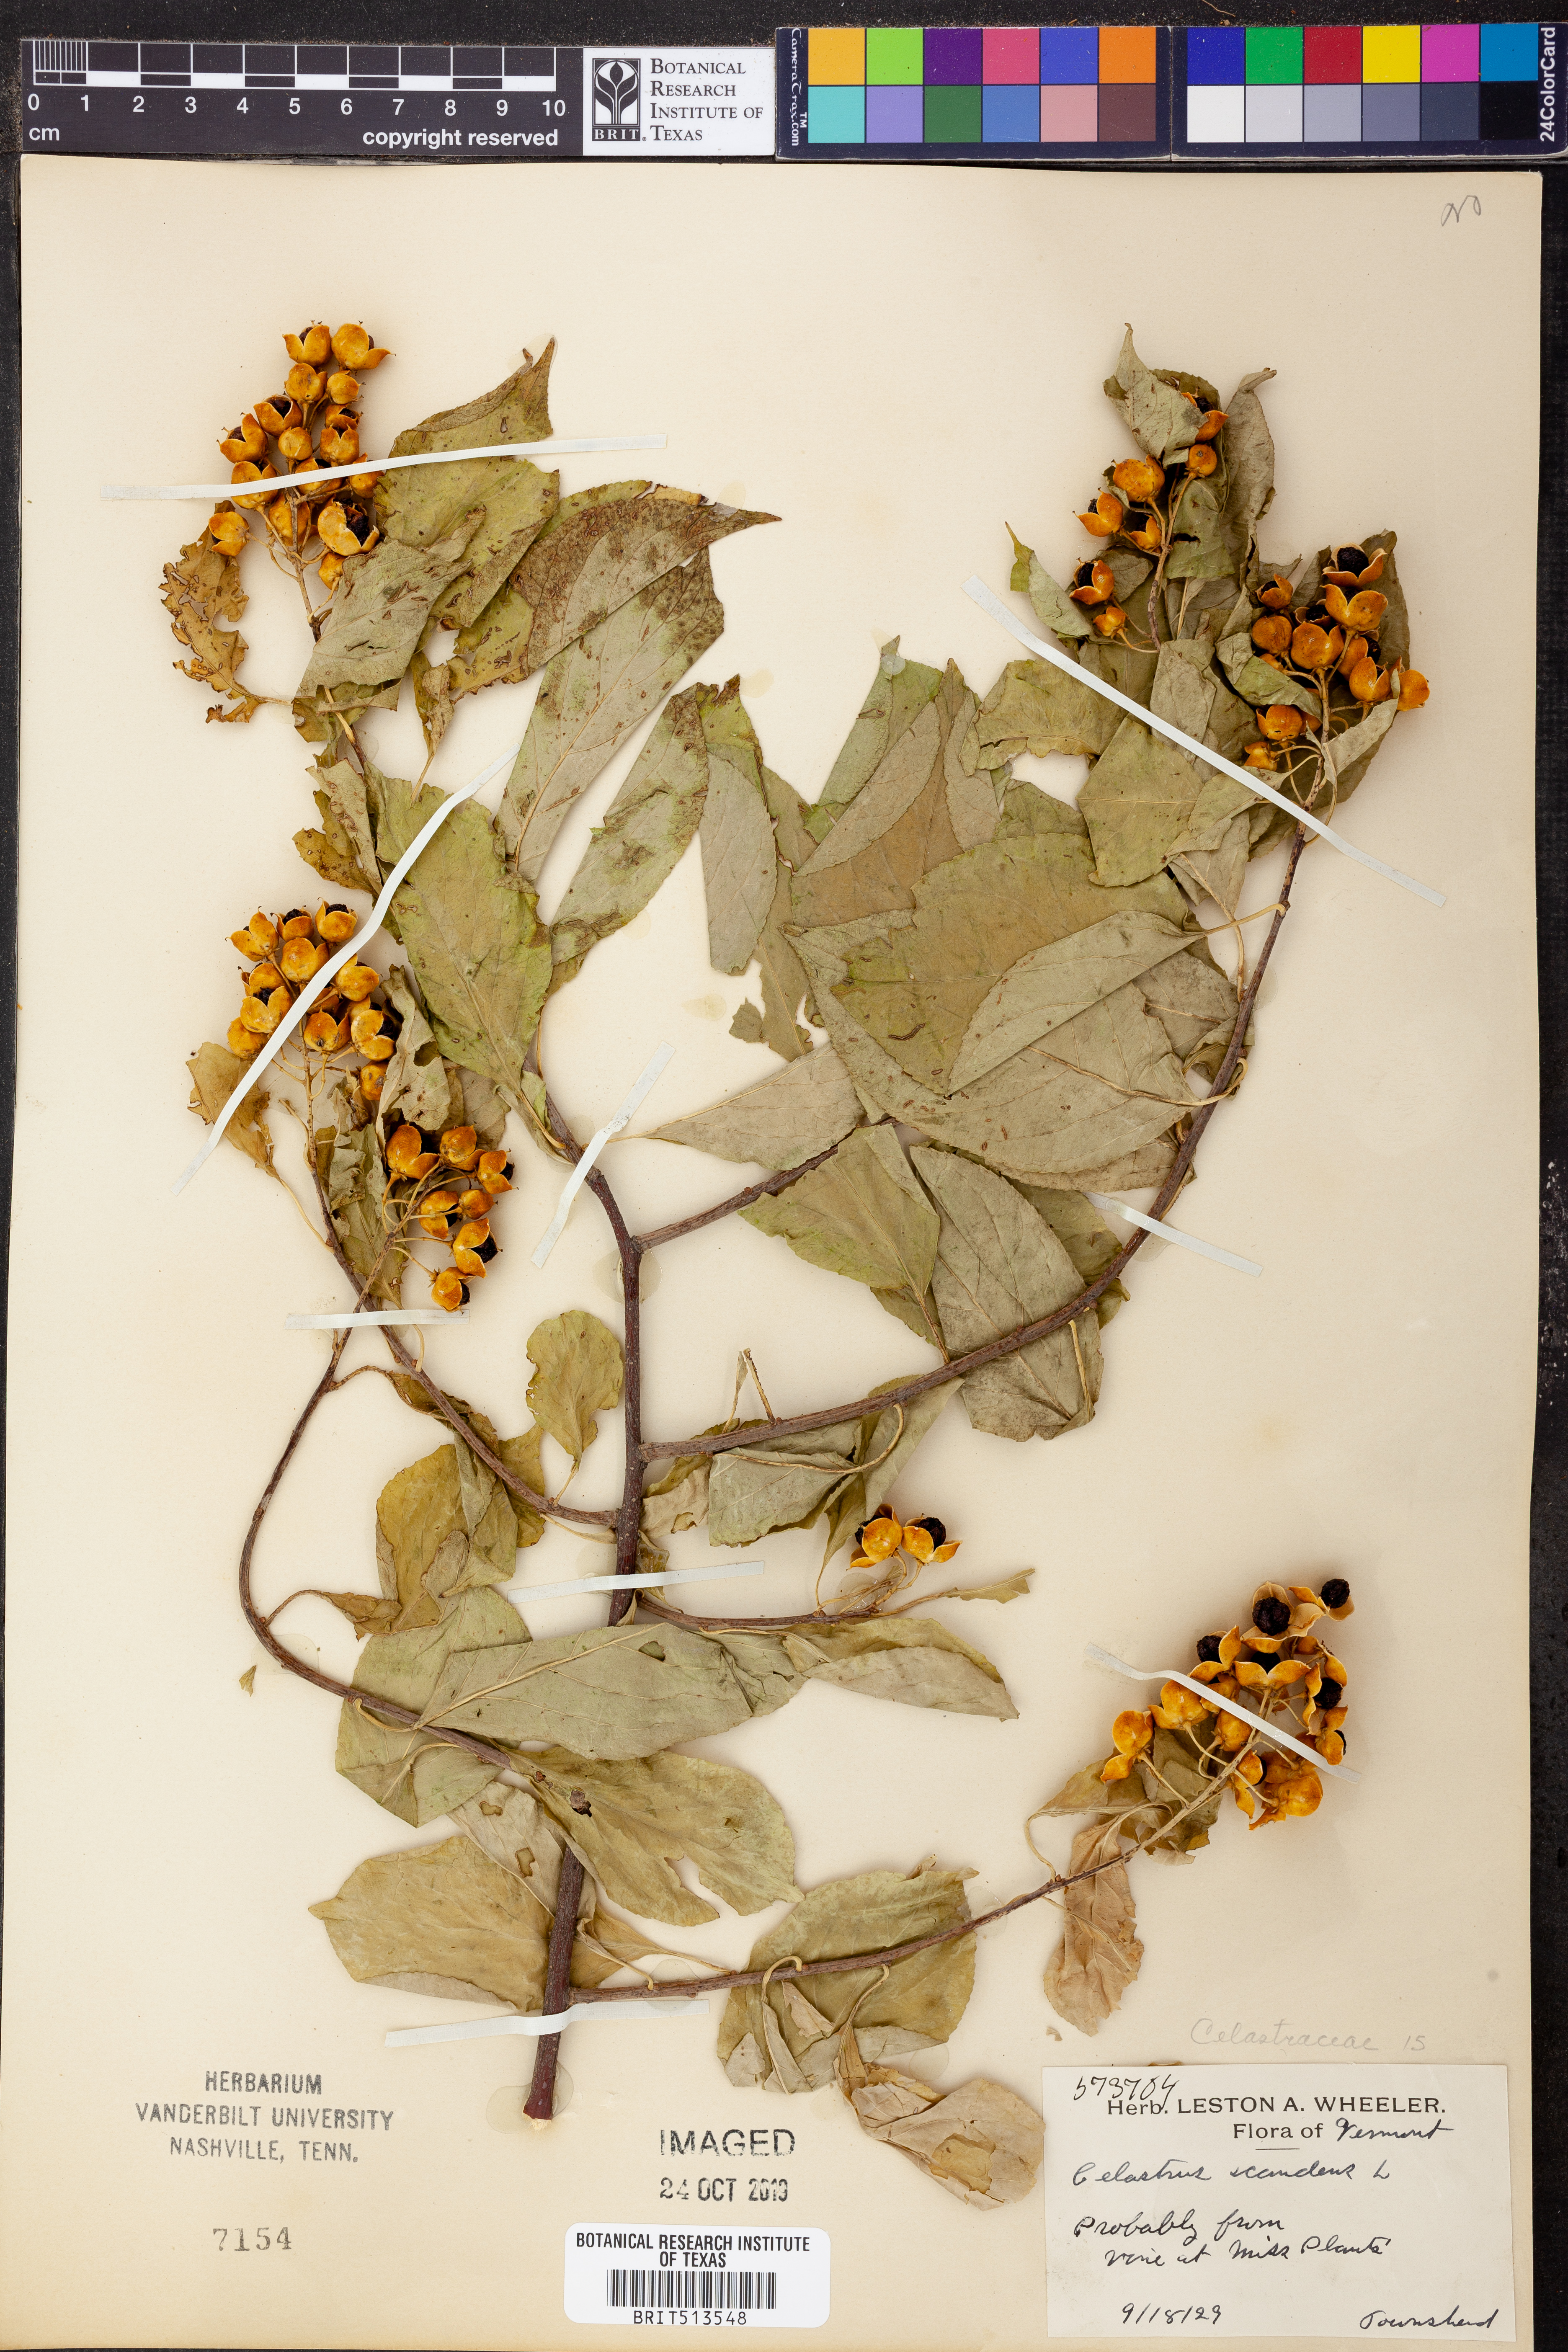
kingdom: Plantae
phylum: Tracheophyta
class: Magnoliopsida
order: Celastrales
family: Celastraceae
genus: Celastrus
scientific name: Celastrus scandens
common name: American bittersweet
